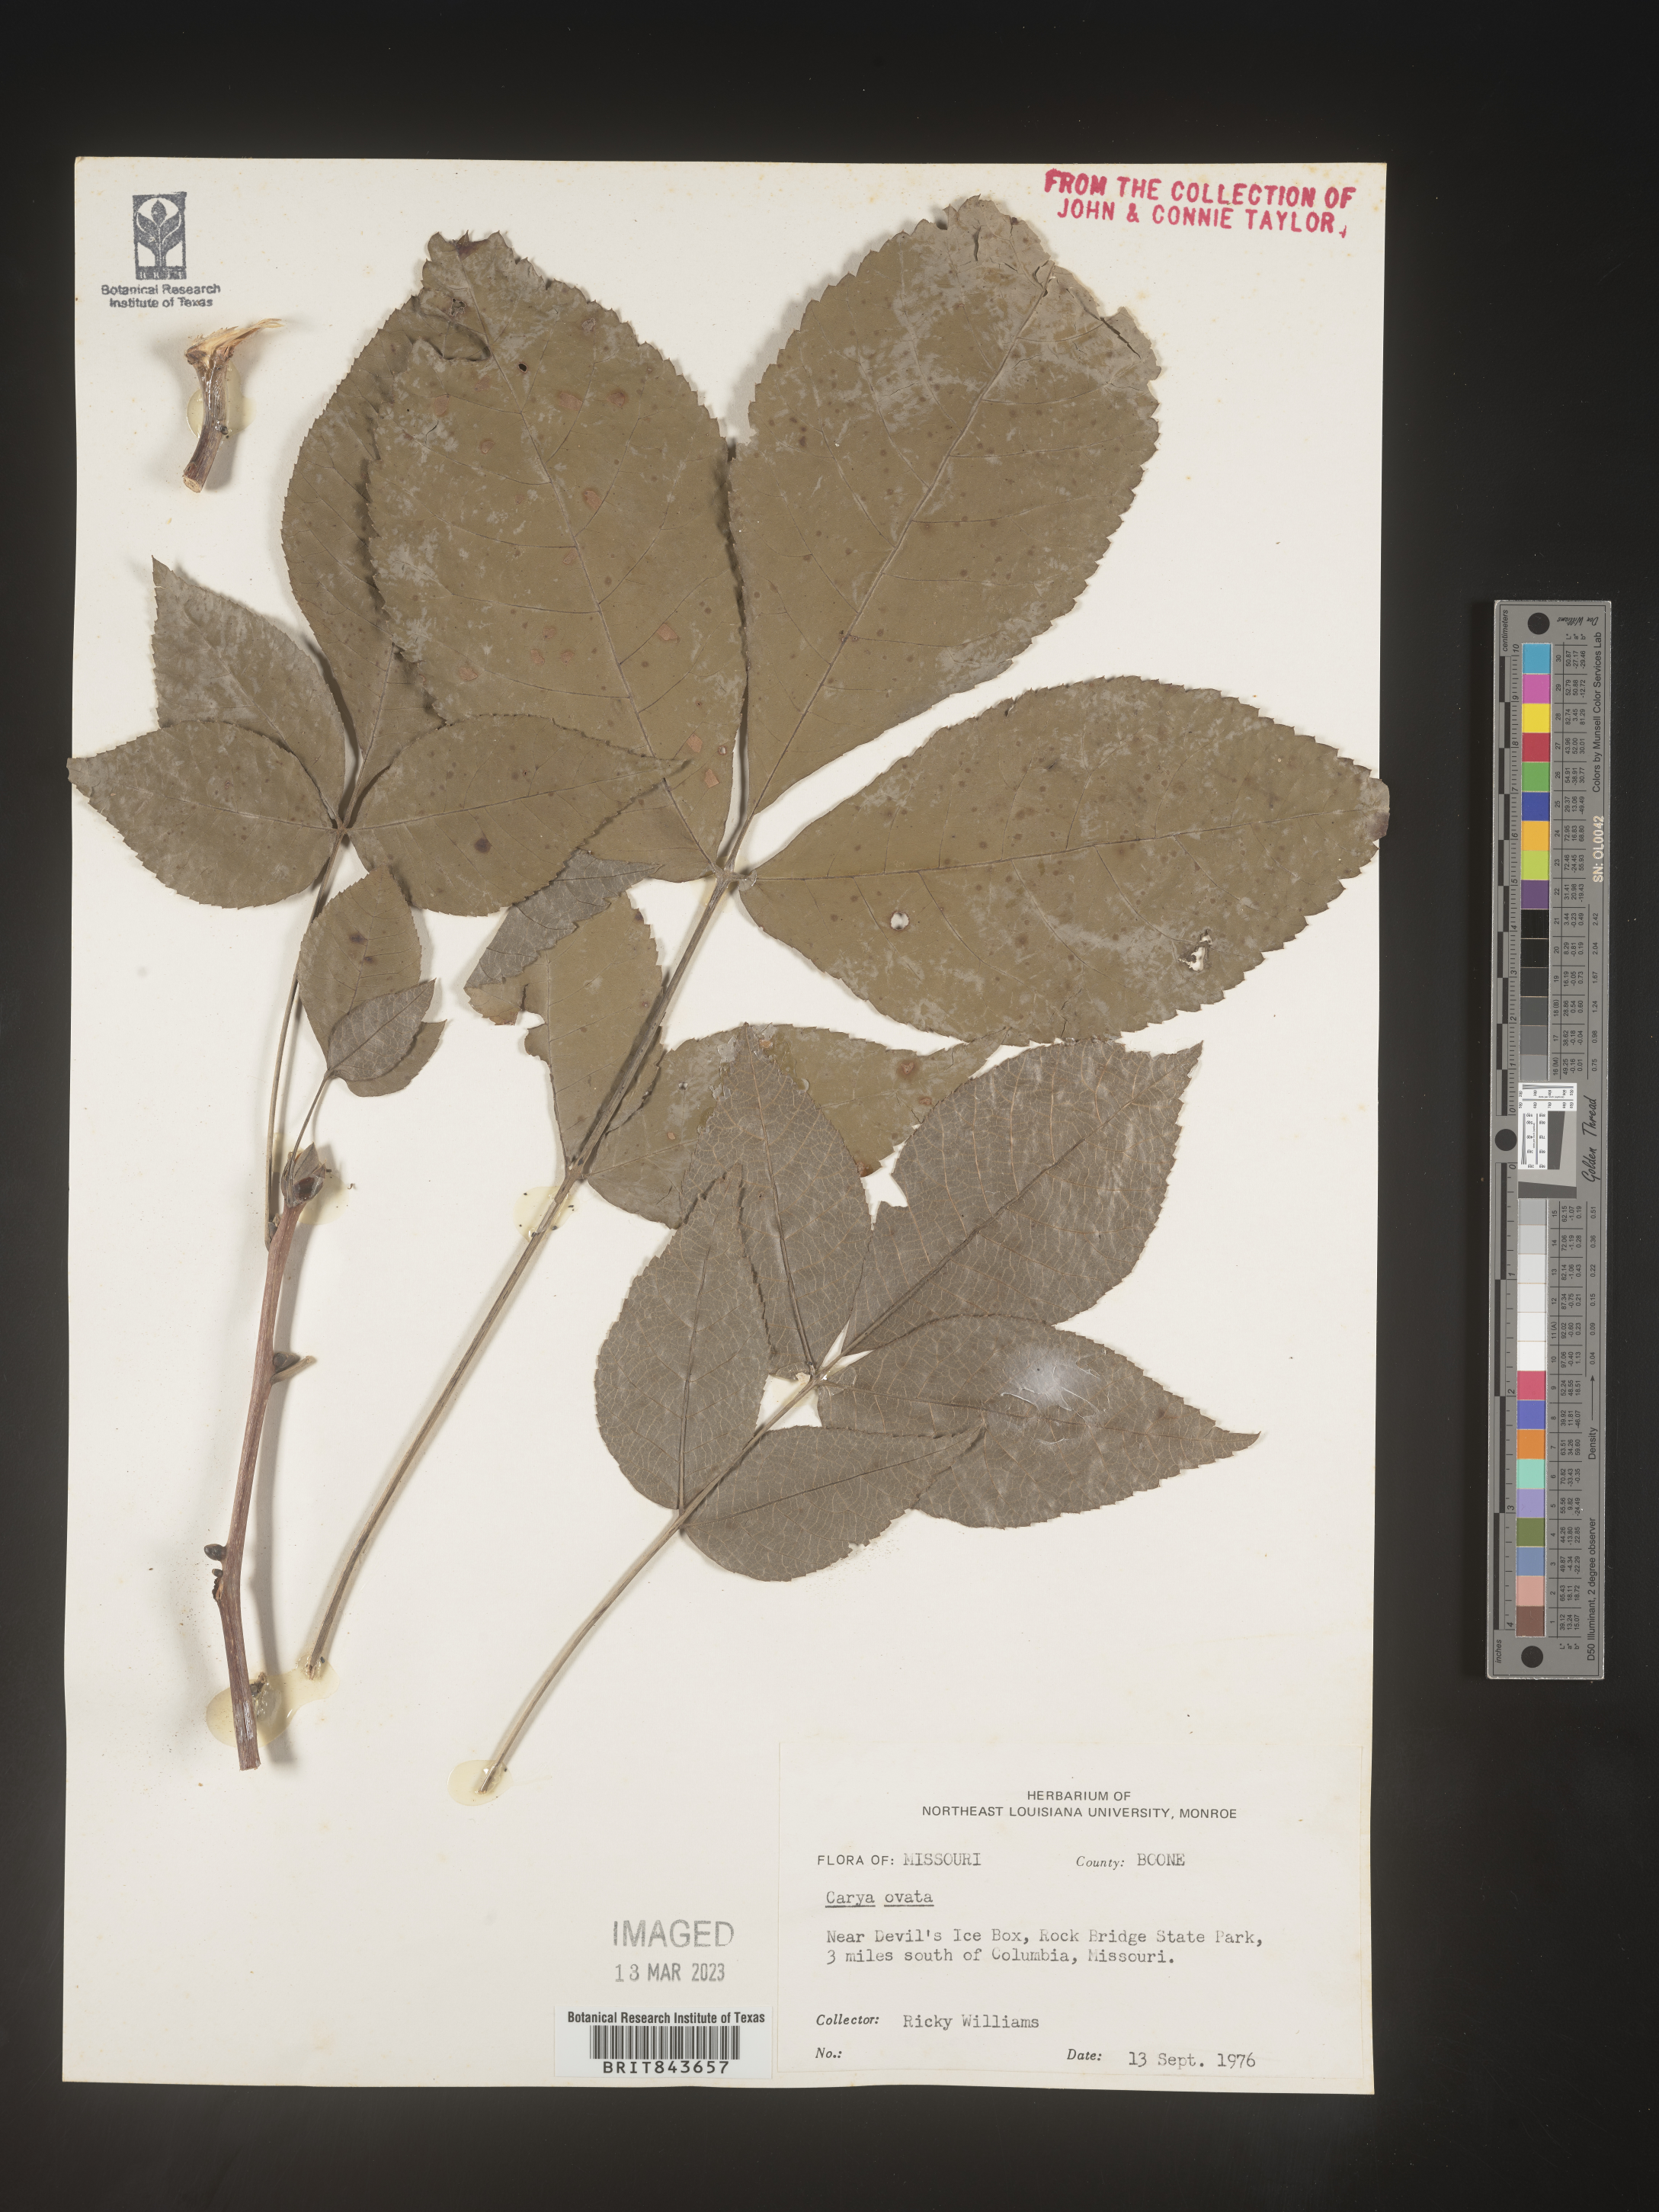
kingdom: Plantae
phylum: Tracheophyta
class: Magnoliopsida
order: Fagales
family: Juglandaceae
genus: Carya
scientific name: Carya ovata
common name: Shagbark hickory
